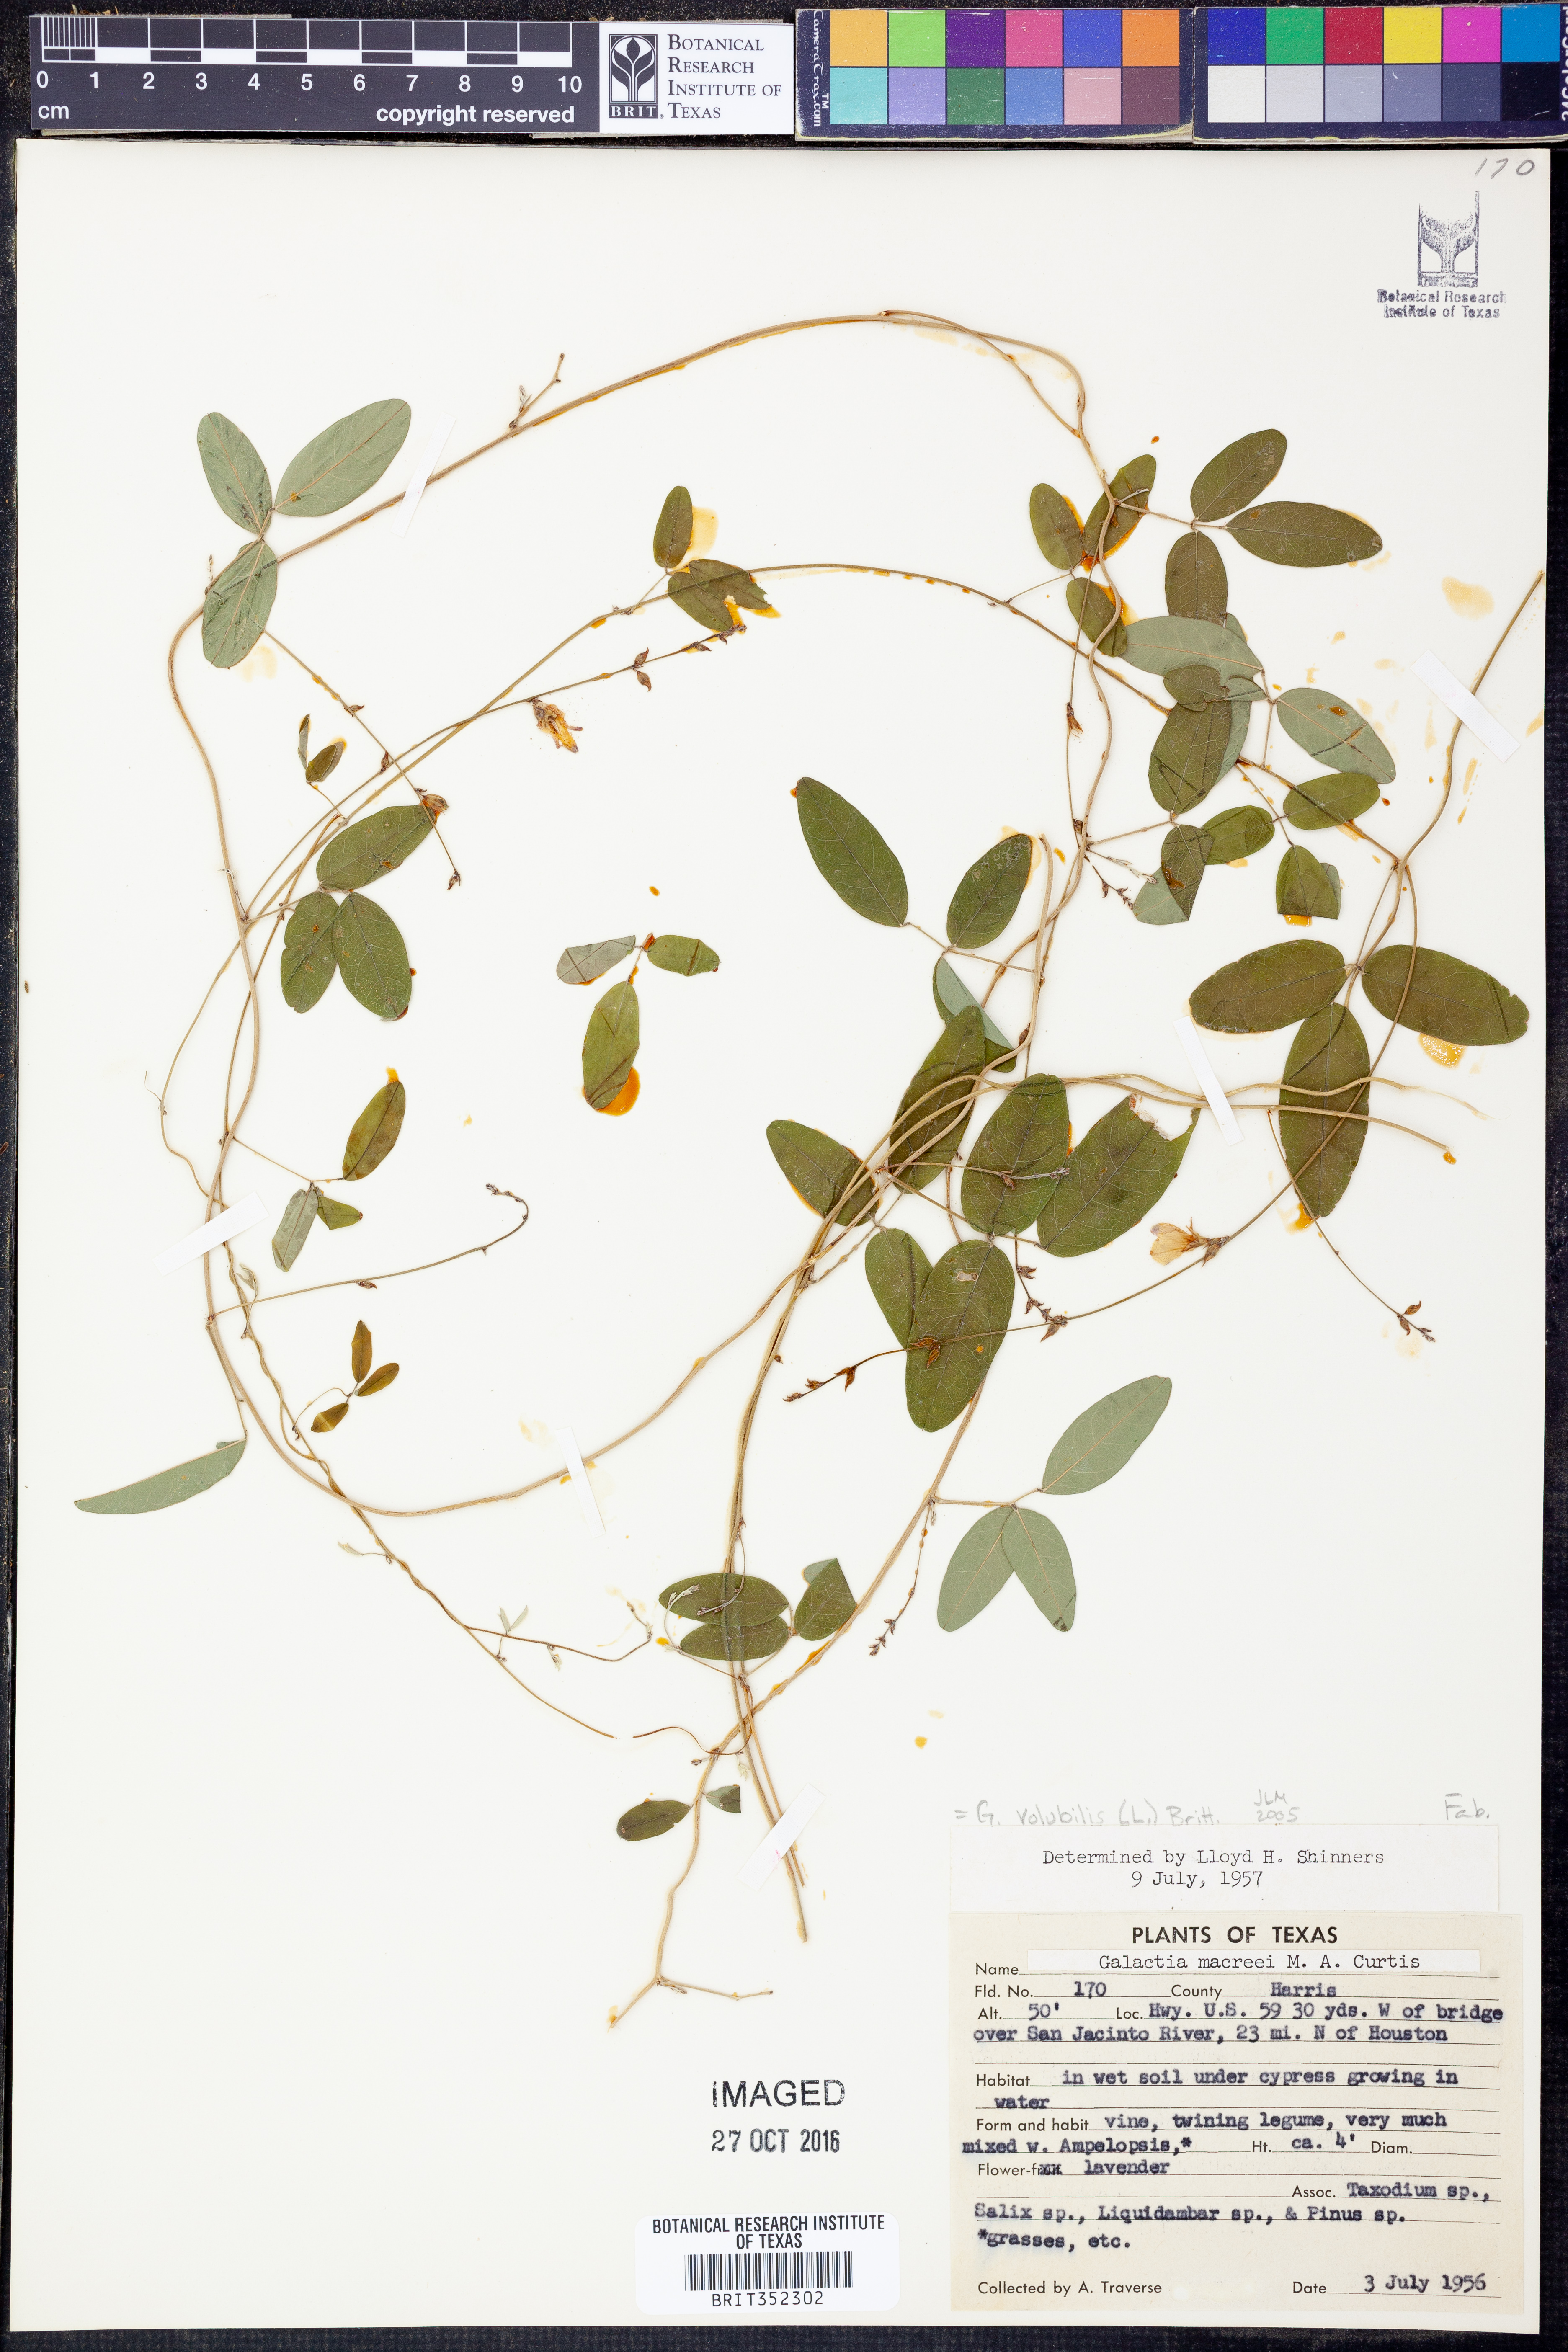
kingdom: Plantae
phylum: Tracheophyta
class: Magnoliopsida
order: Fabales
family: Fabaceae
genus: Galactia
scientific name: Galactia volubilis
